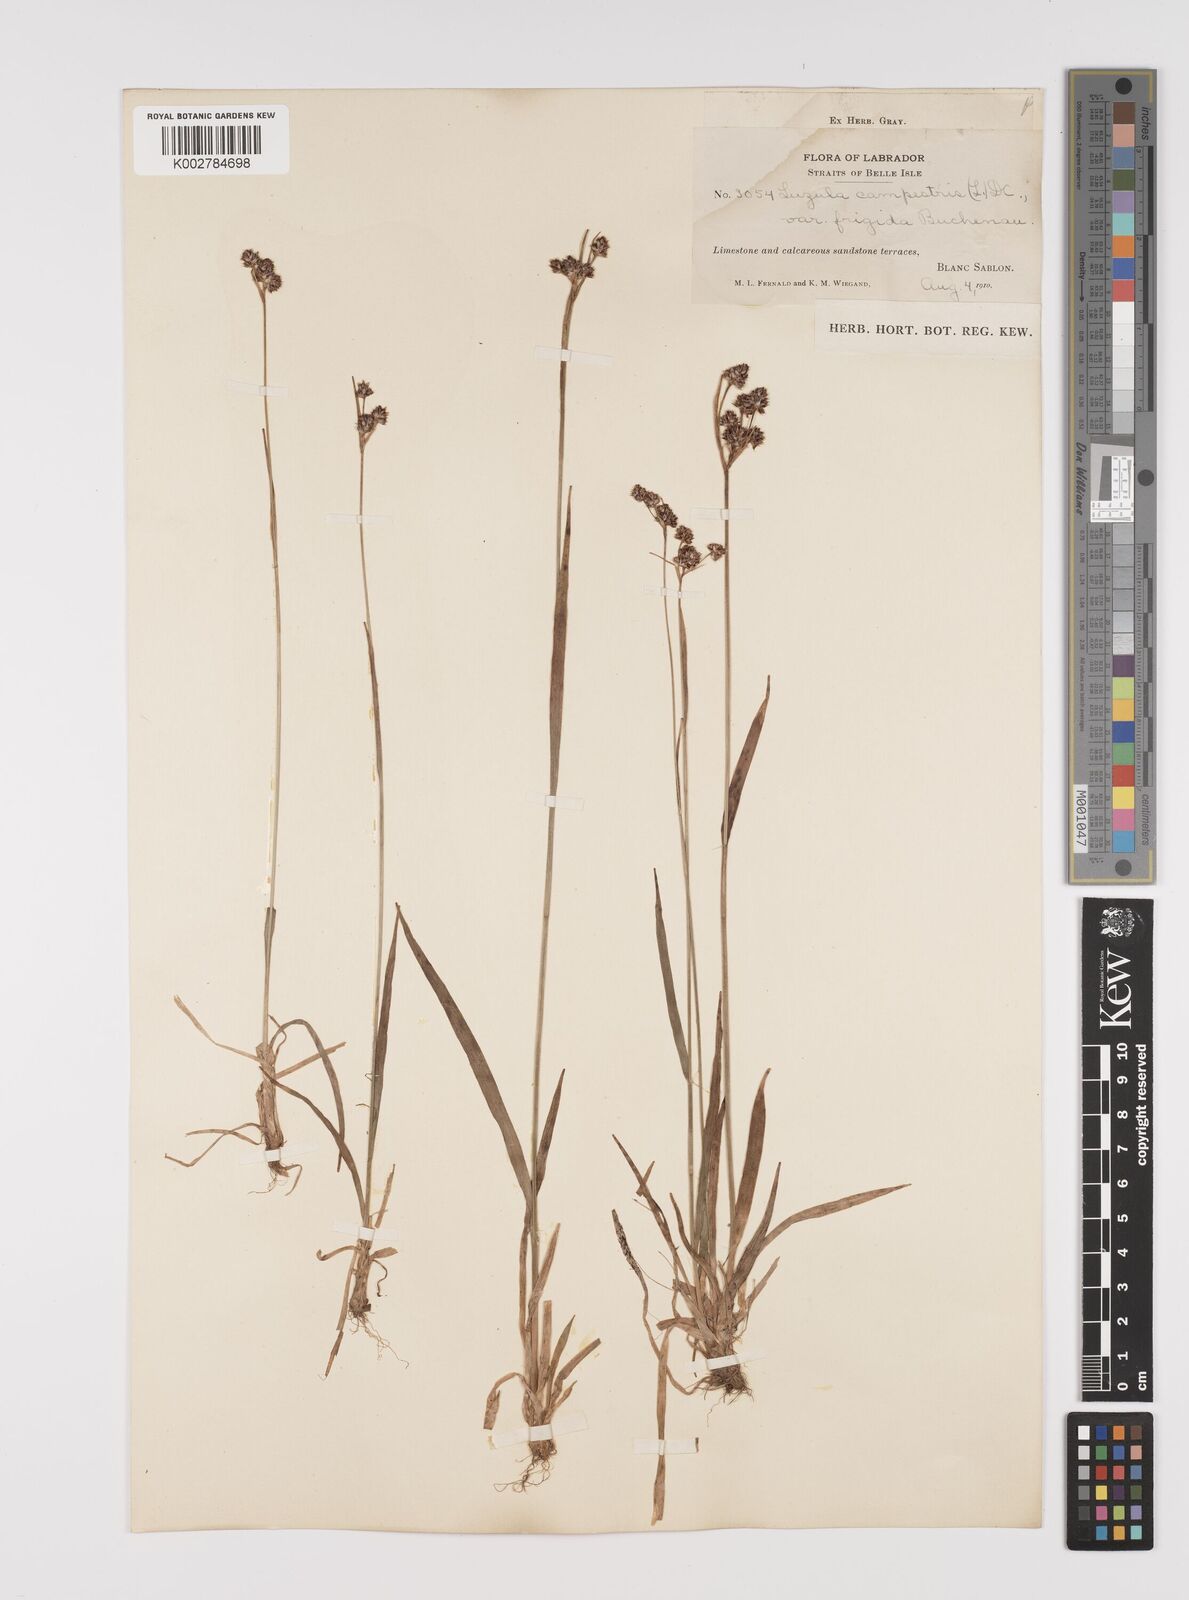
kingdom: Plantae
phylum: Tracheophyta
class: Liliopsida
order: Poales
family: Juncaceae
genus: Luzula
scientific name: Luzula multiflora
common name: Heath wood-rush
